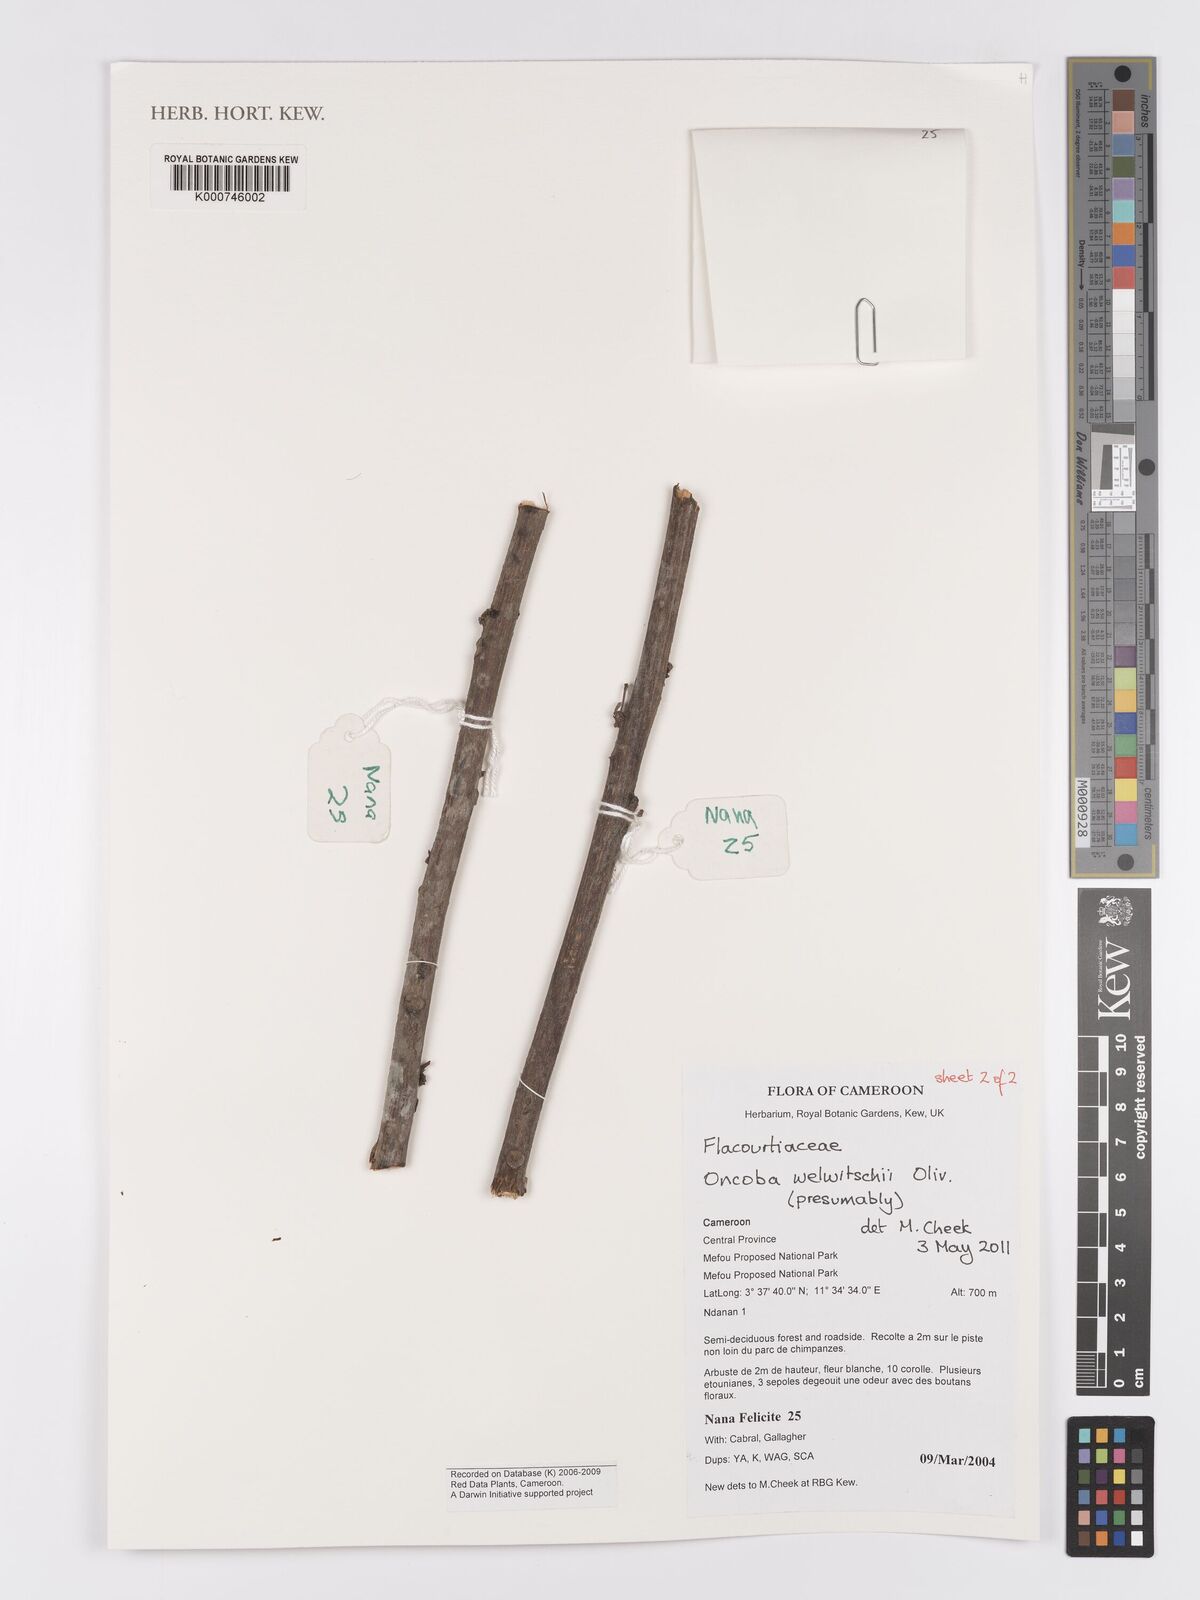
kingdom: Plantae
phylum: Tracheophyta
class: Magnoliopsida
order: Malpighiales
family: Achariaceae
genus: Caloncoba
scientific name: Caloncoba welwitschii
